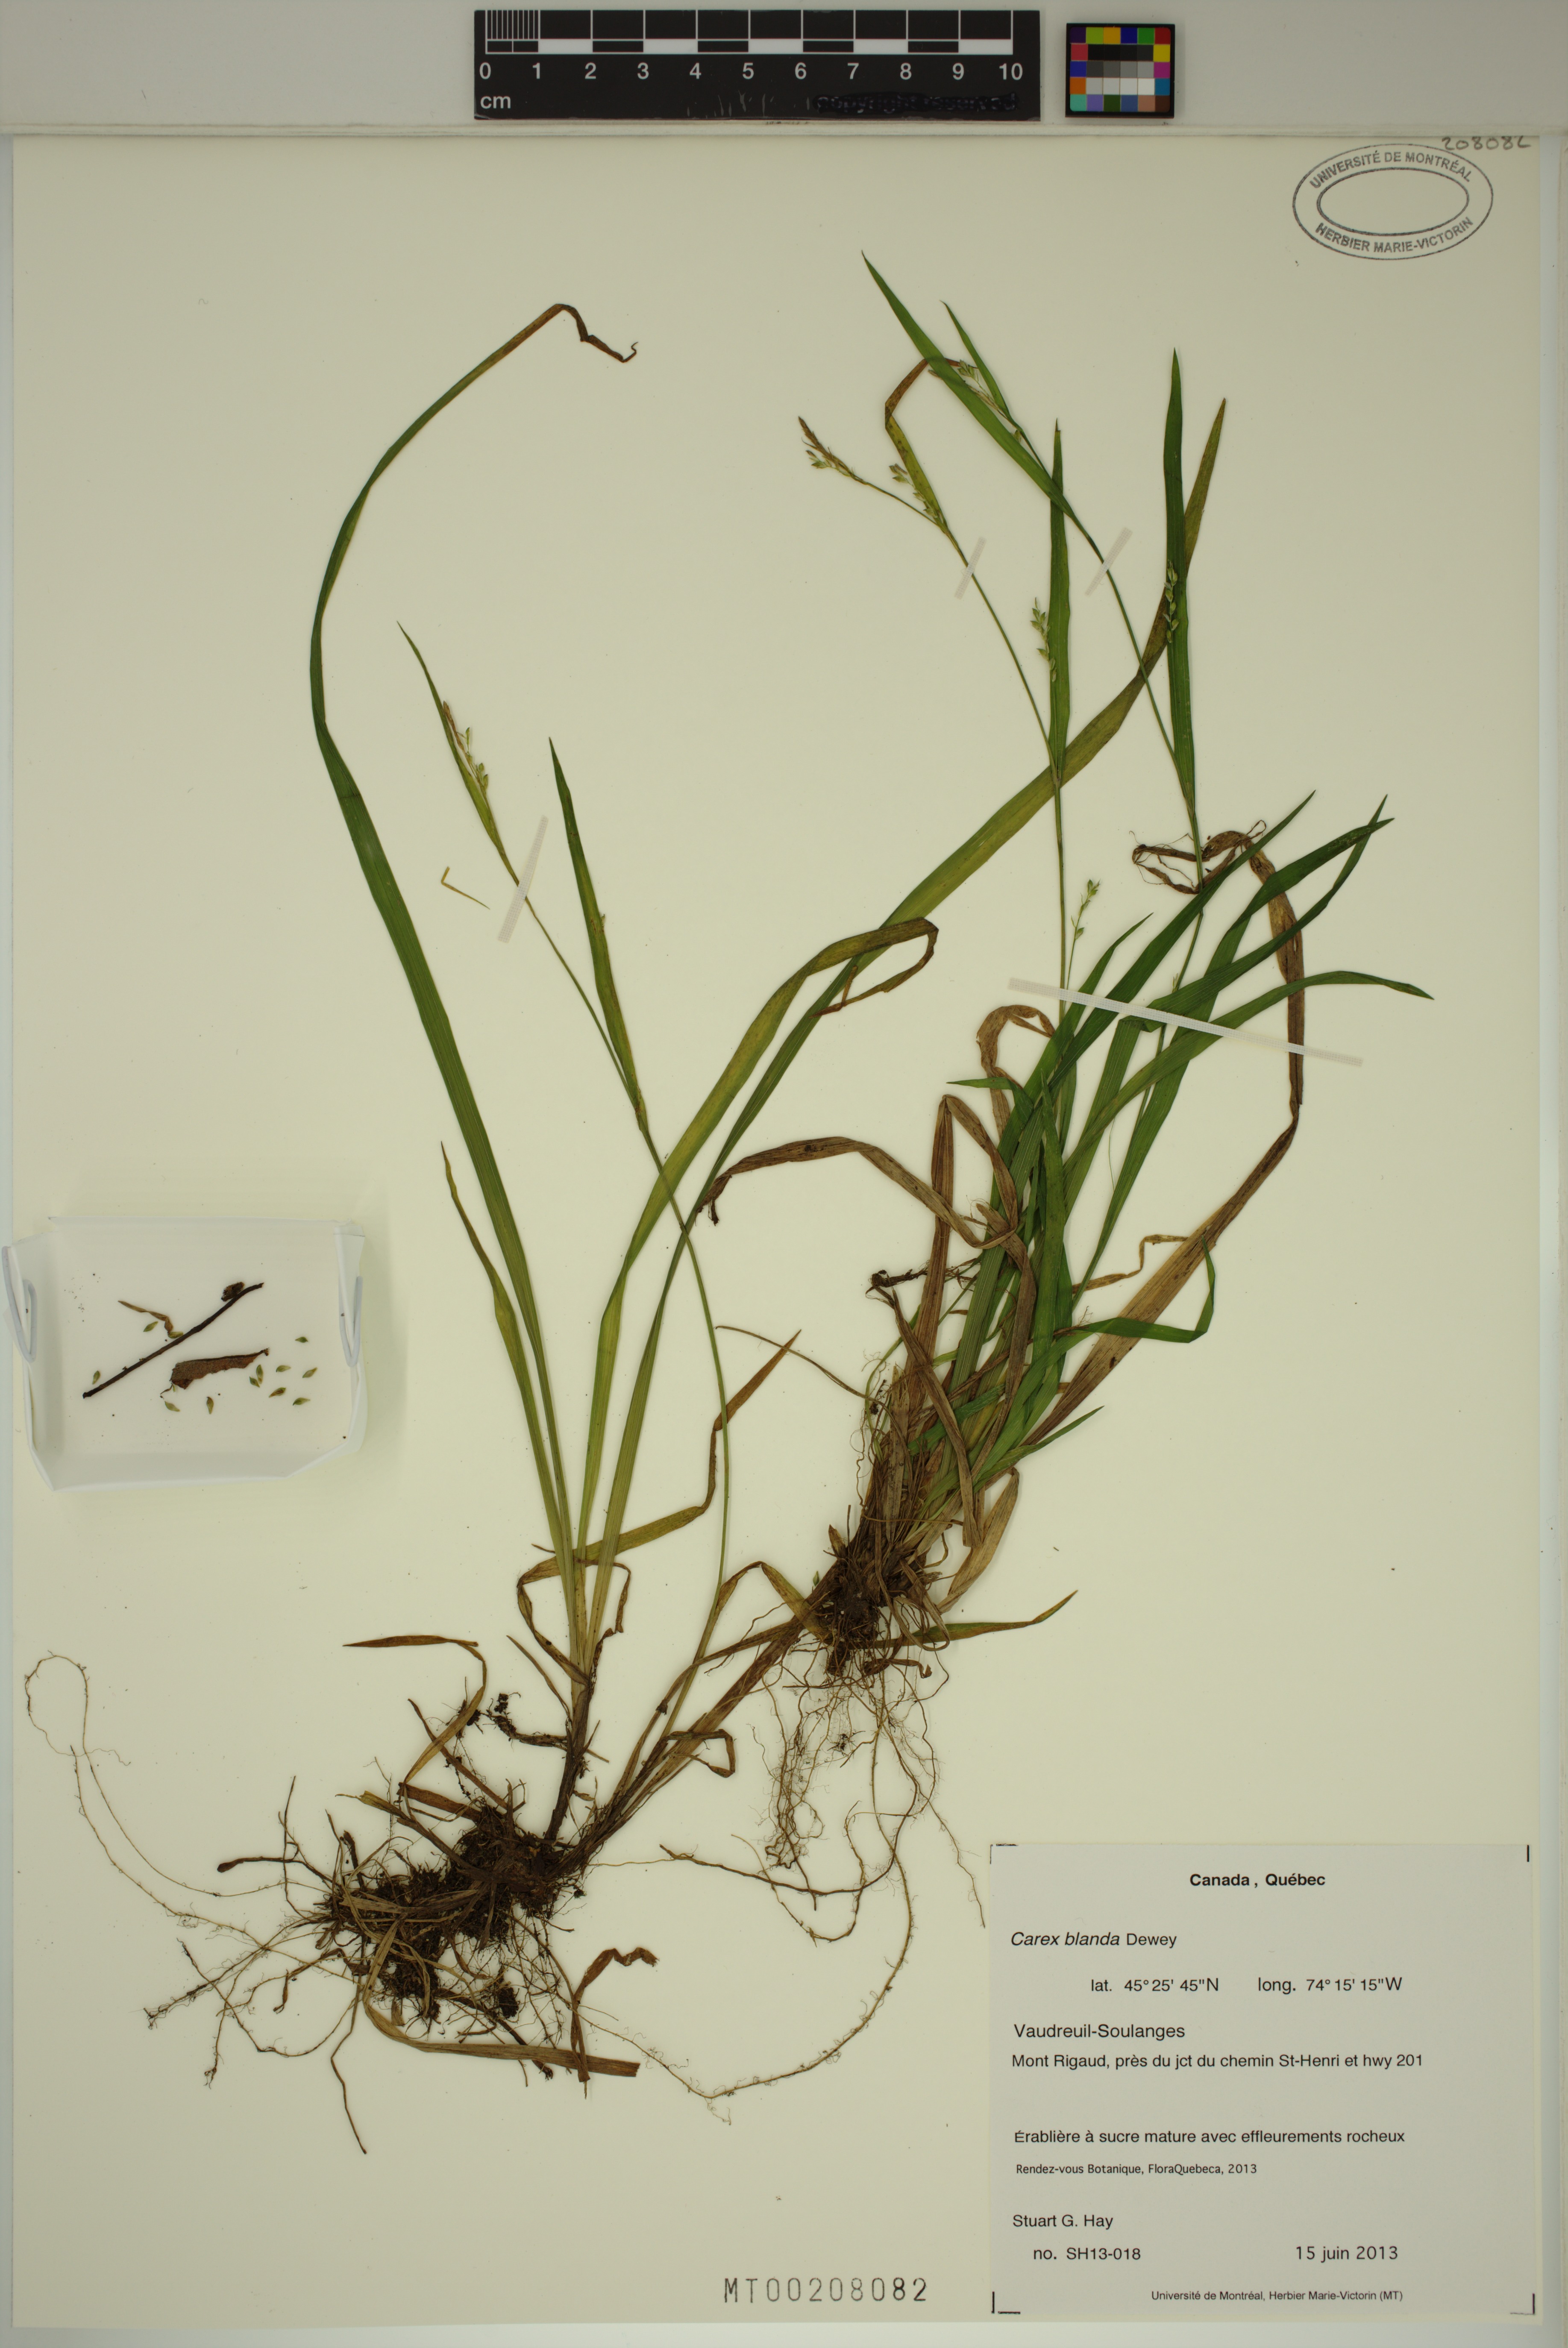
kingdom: Plantae
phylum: Tracheophyta
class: Liliopsida
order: Poales
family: Cyperaceae
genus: Carex
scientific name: Carex blanda
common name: Bland sedge
